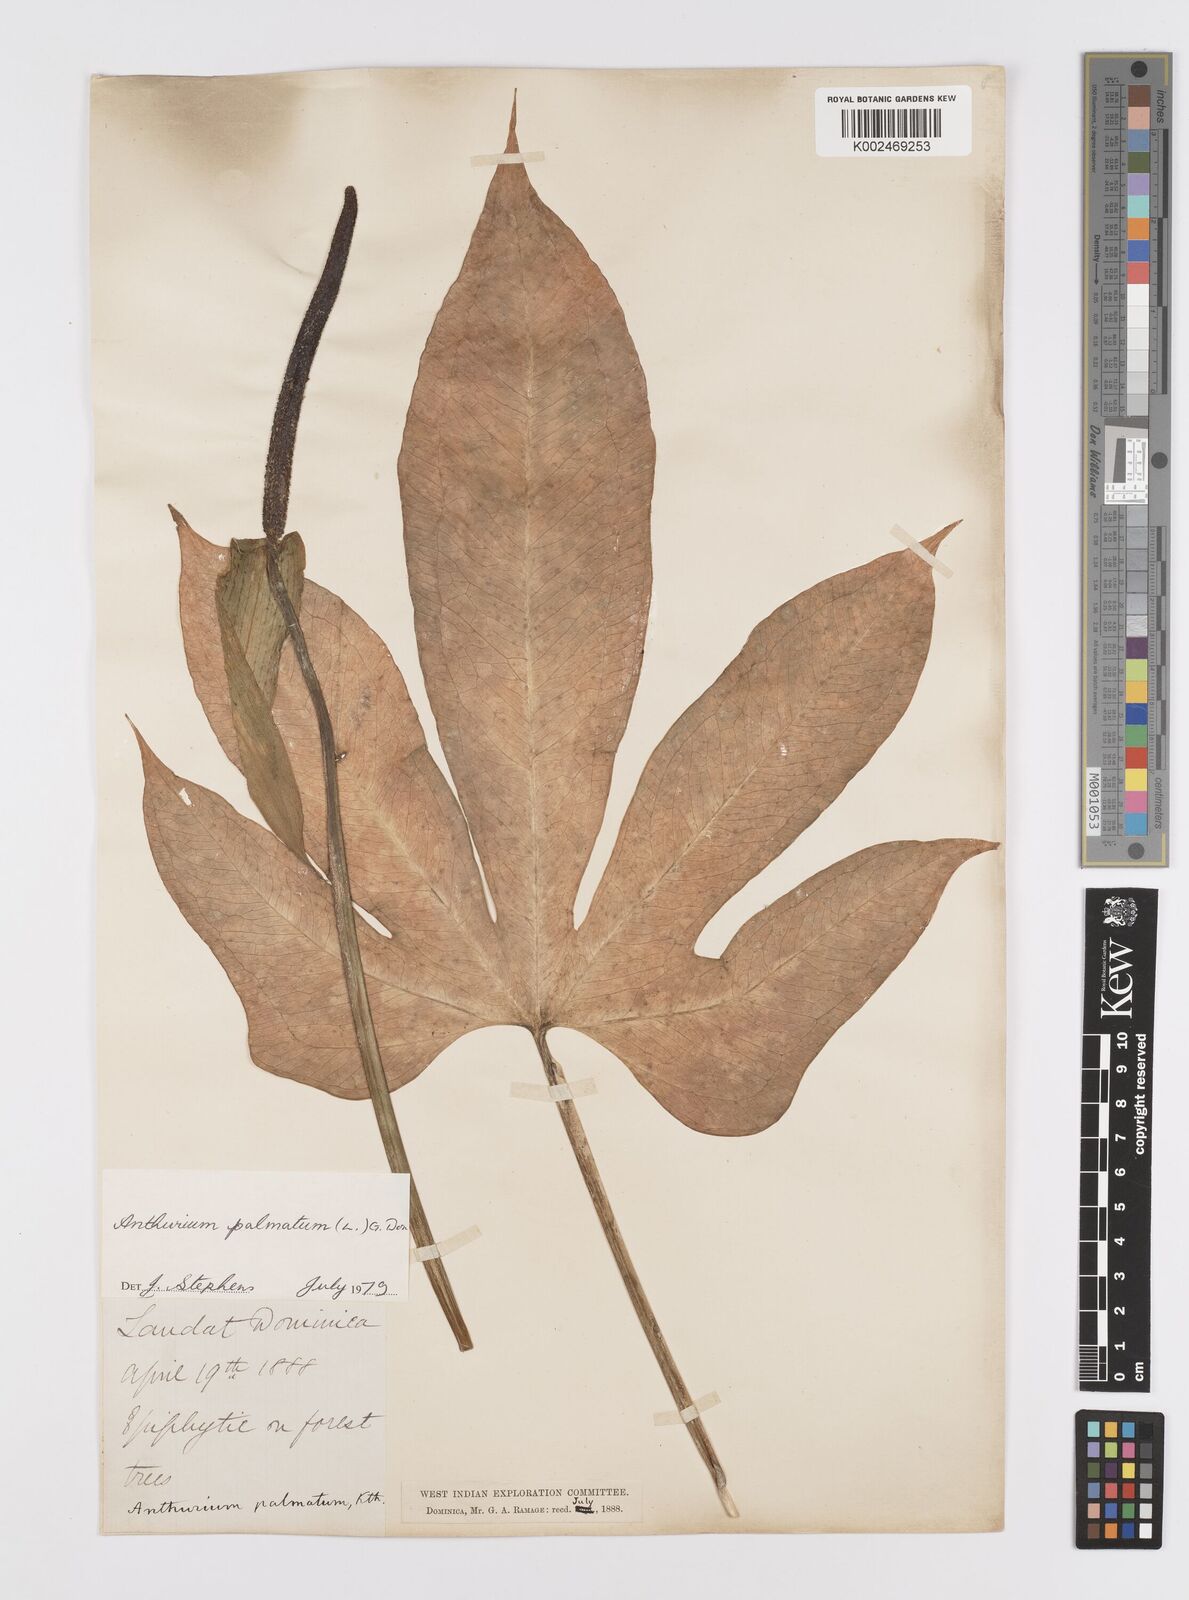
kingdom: Plantae
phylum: Tracheophyta
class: Liliopsida
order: Alismatales
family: Araceae
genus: Anthurium
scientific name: Anthurium palmatum
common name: Mibi
